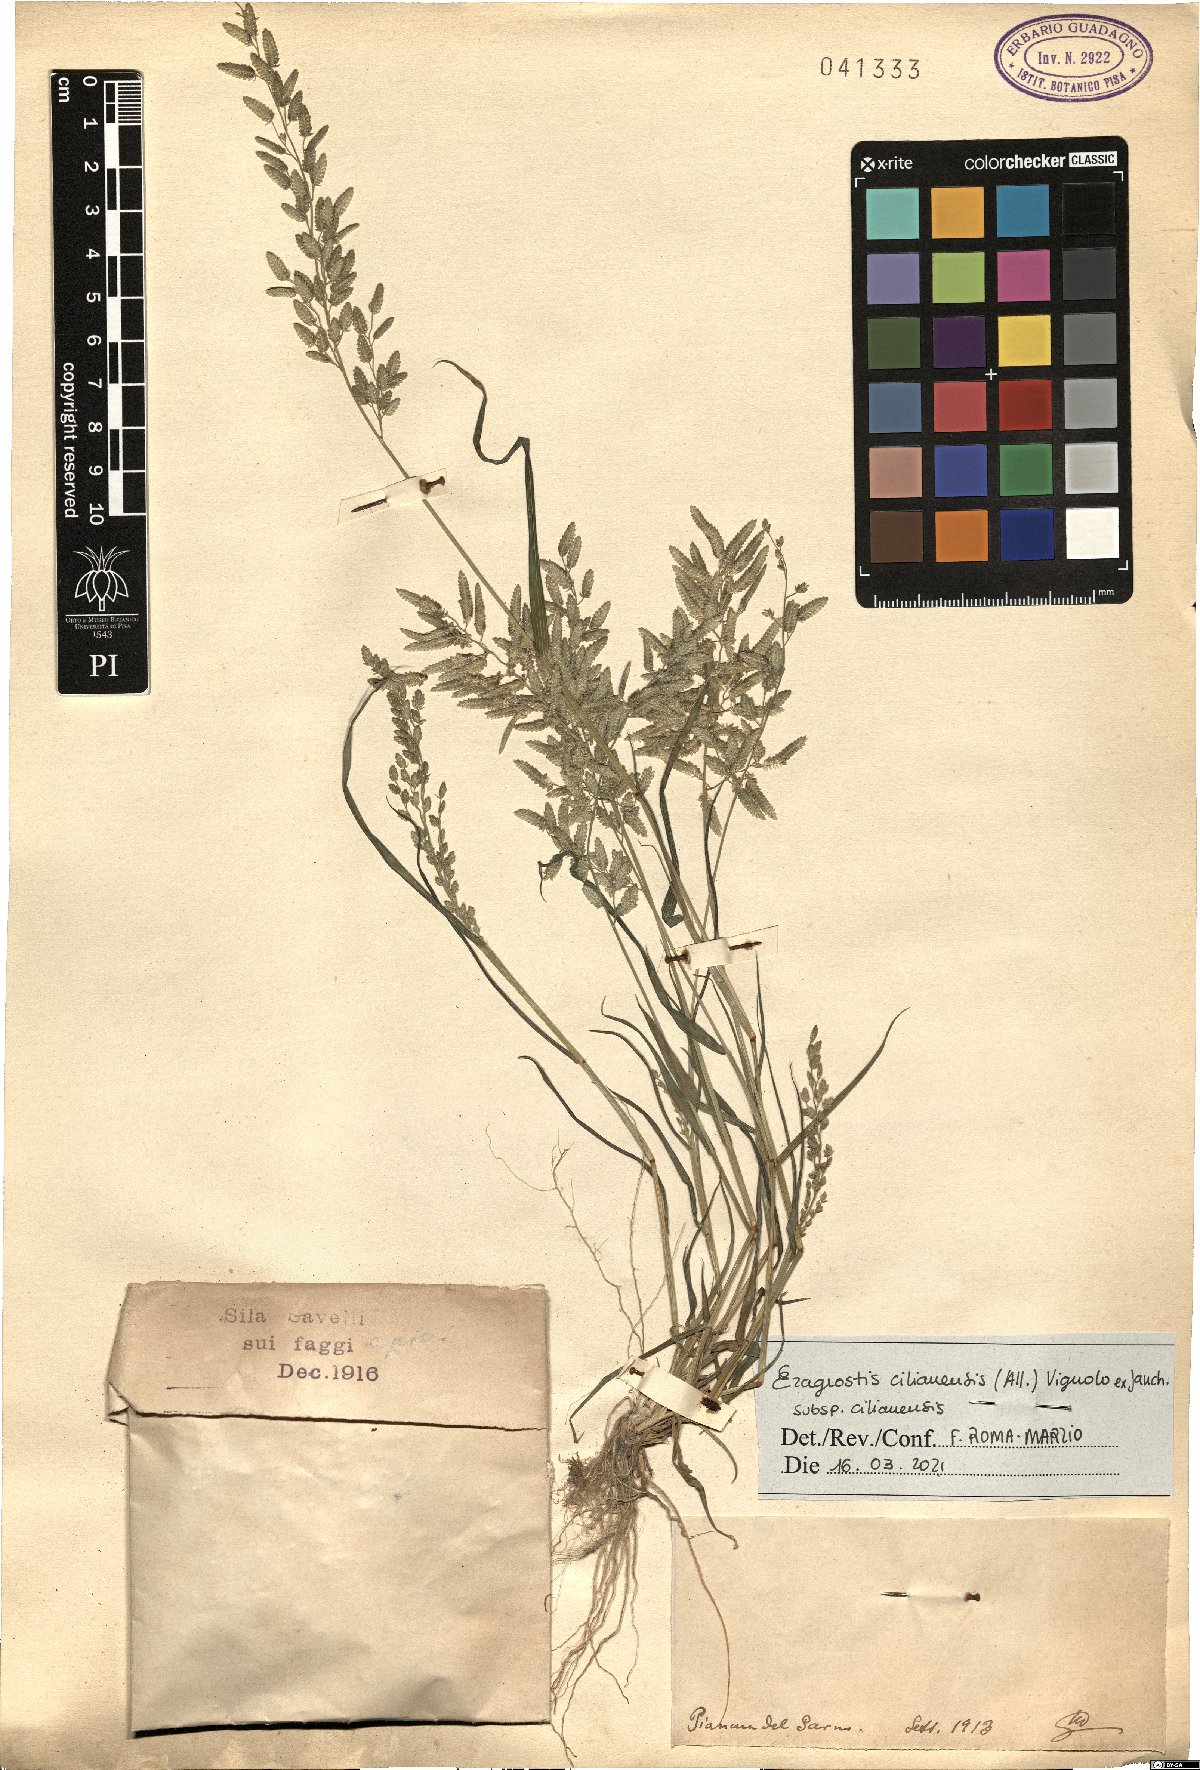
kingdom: Plantae
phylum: Tracheophyta
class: Liliopsida
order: Poales
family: Poaceae
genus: Eragrostis
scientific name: Eragrostis cilianensis
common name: Stinkgrass
